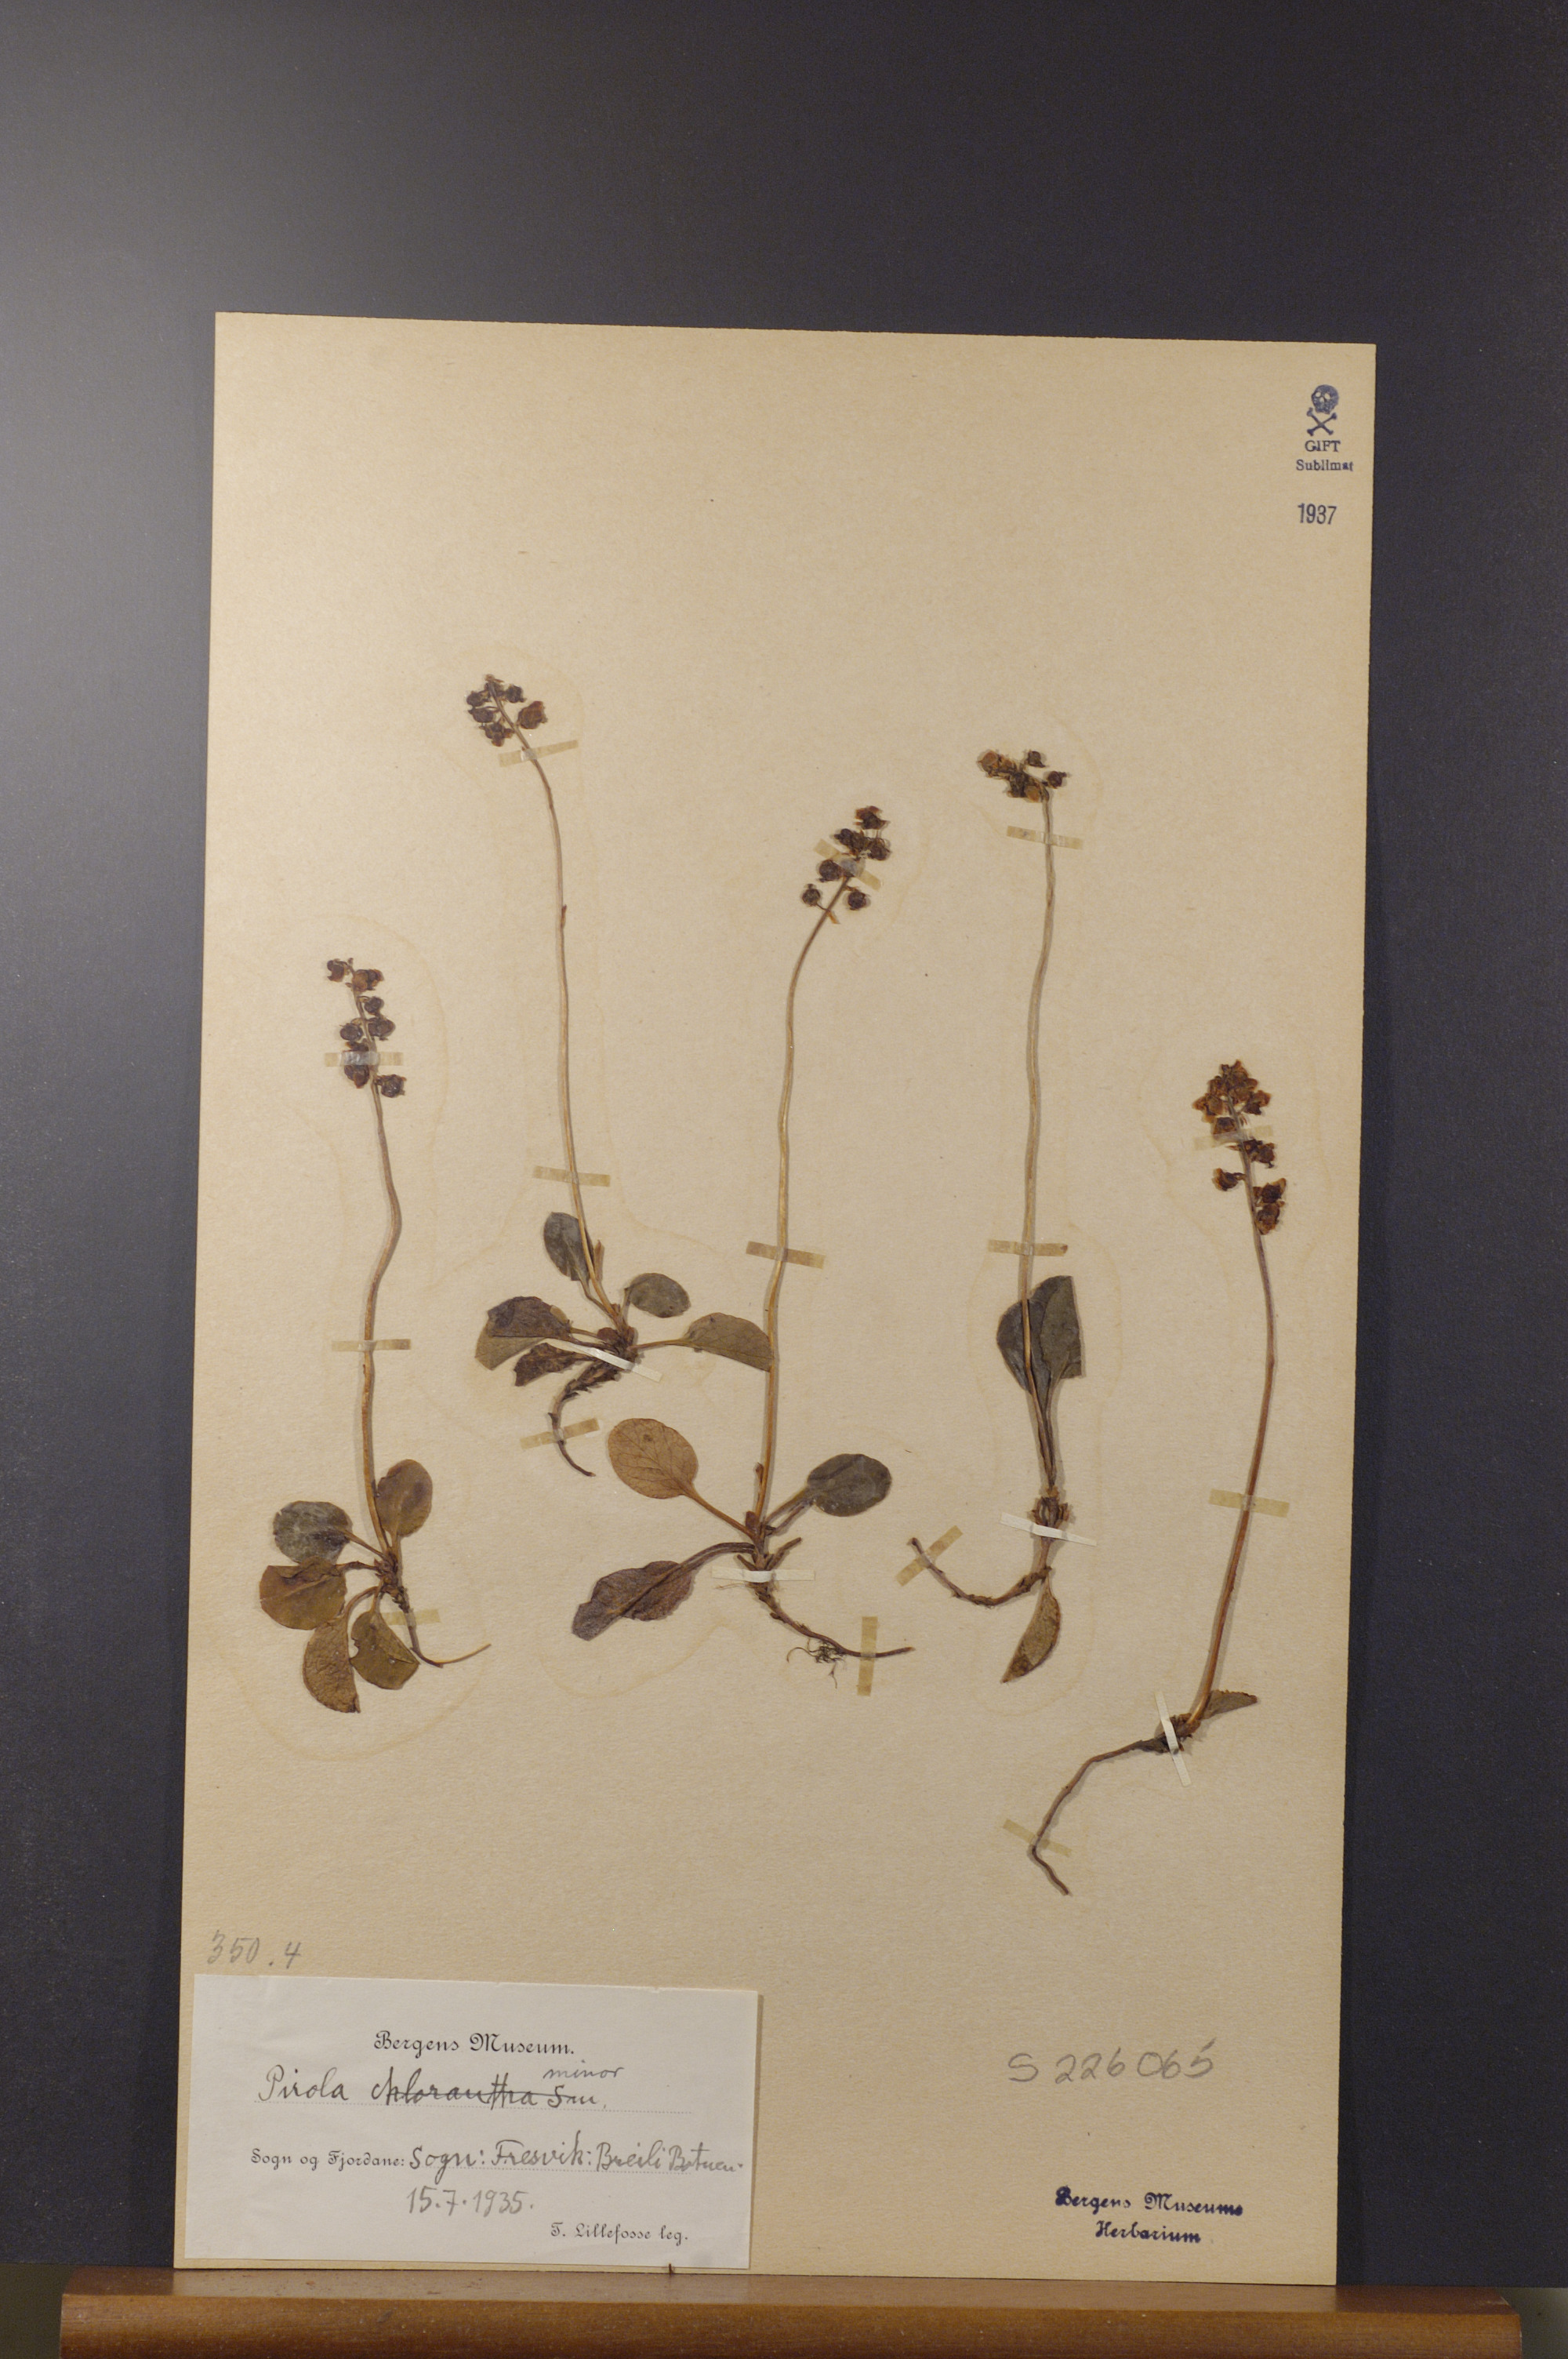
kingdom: Plantae
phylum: Tracheophyta
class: Magnoliopsida
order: Ericales
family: Ericaceae
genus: Pyrola
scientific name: Pyrola minor
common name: Common wintergreen
